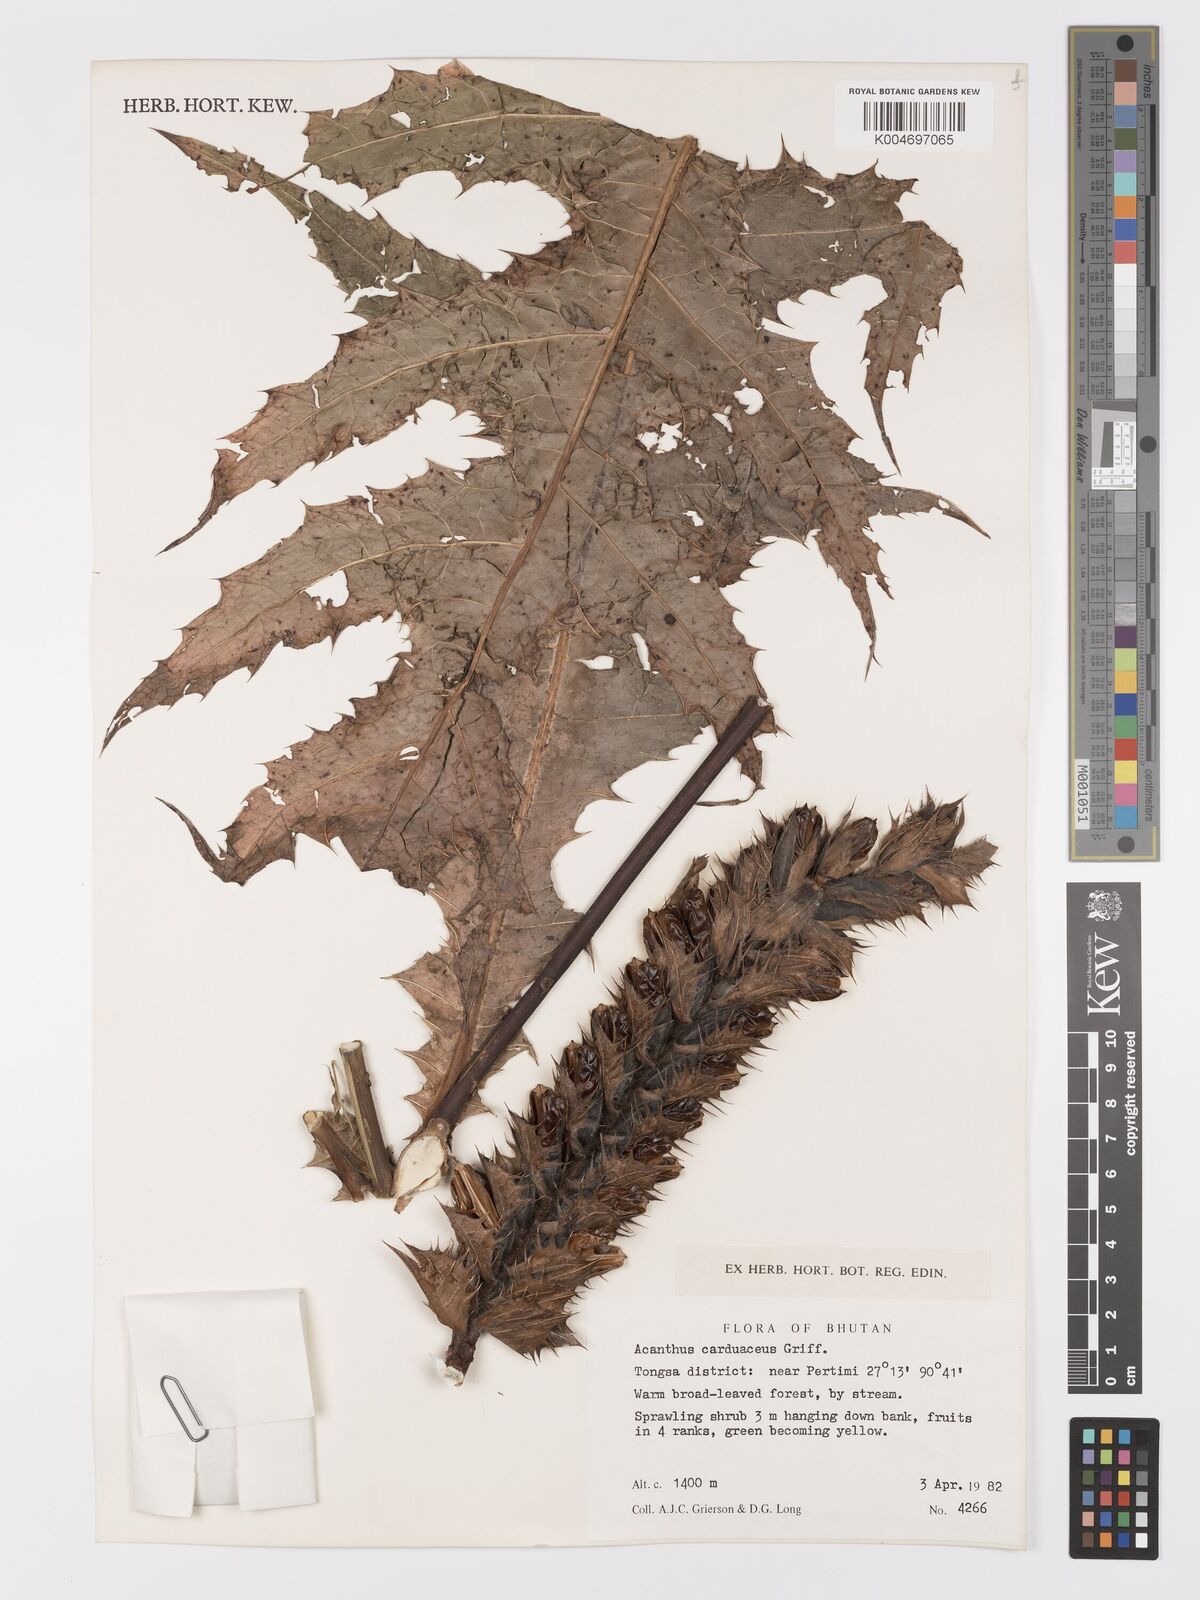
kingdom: Plantae
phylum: Tracheophyta
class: Magnoliopsida
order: Lamiales
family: Acanthaceae
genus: Acanthus
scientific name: Acanthus carduaceus
